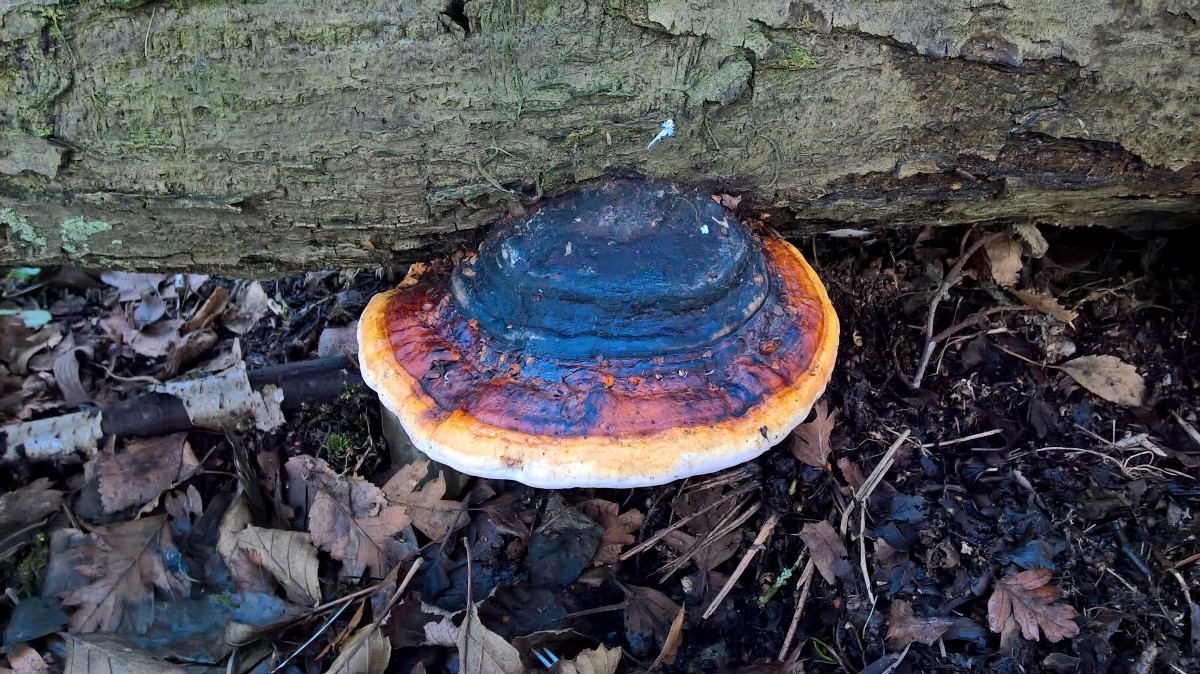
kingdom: Fungi
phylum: Basidiomycota
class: Agaricomycetes
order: Polyporales
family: Fomitopsidaceae
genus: Fomitopsis
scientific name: Fomitopsis pinicola
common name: randbæltet hovporesvamp
